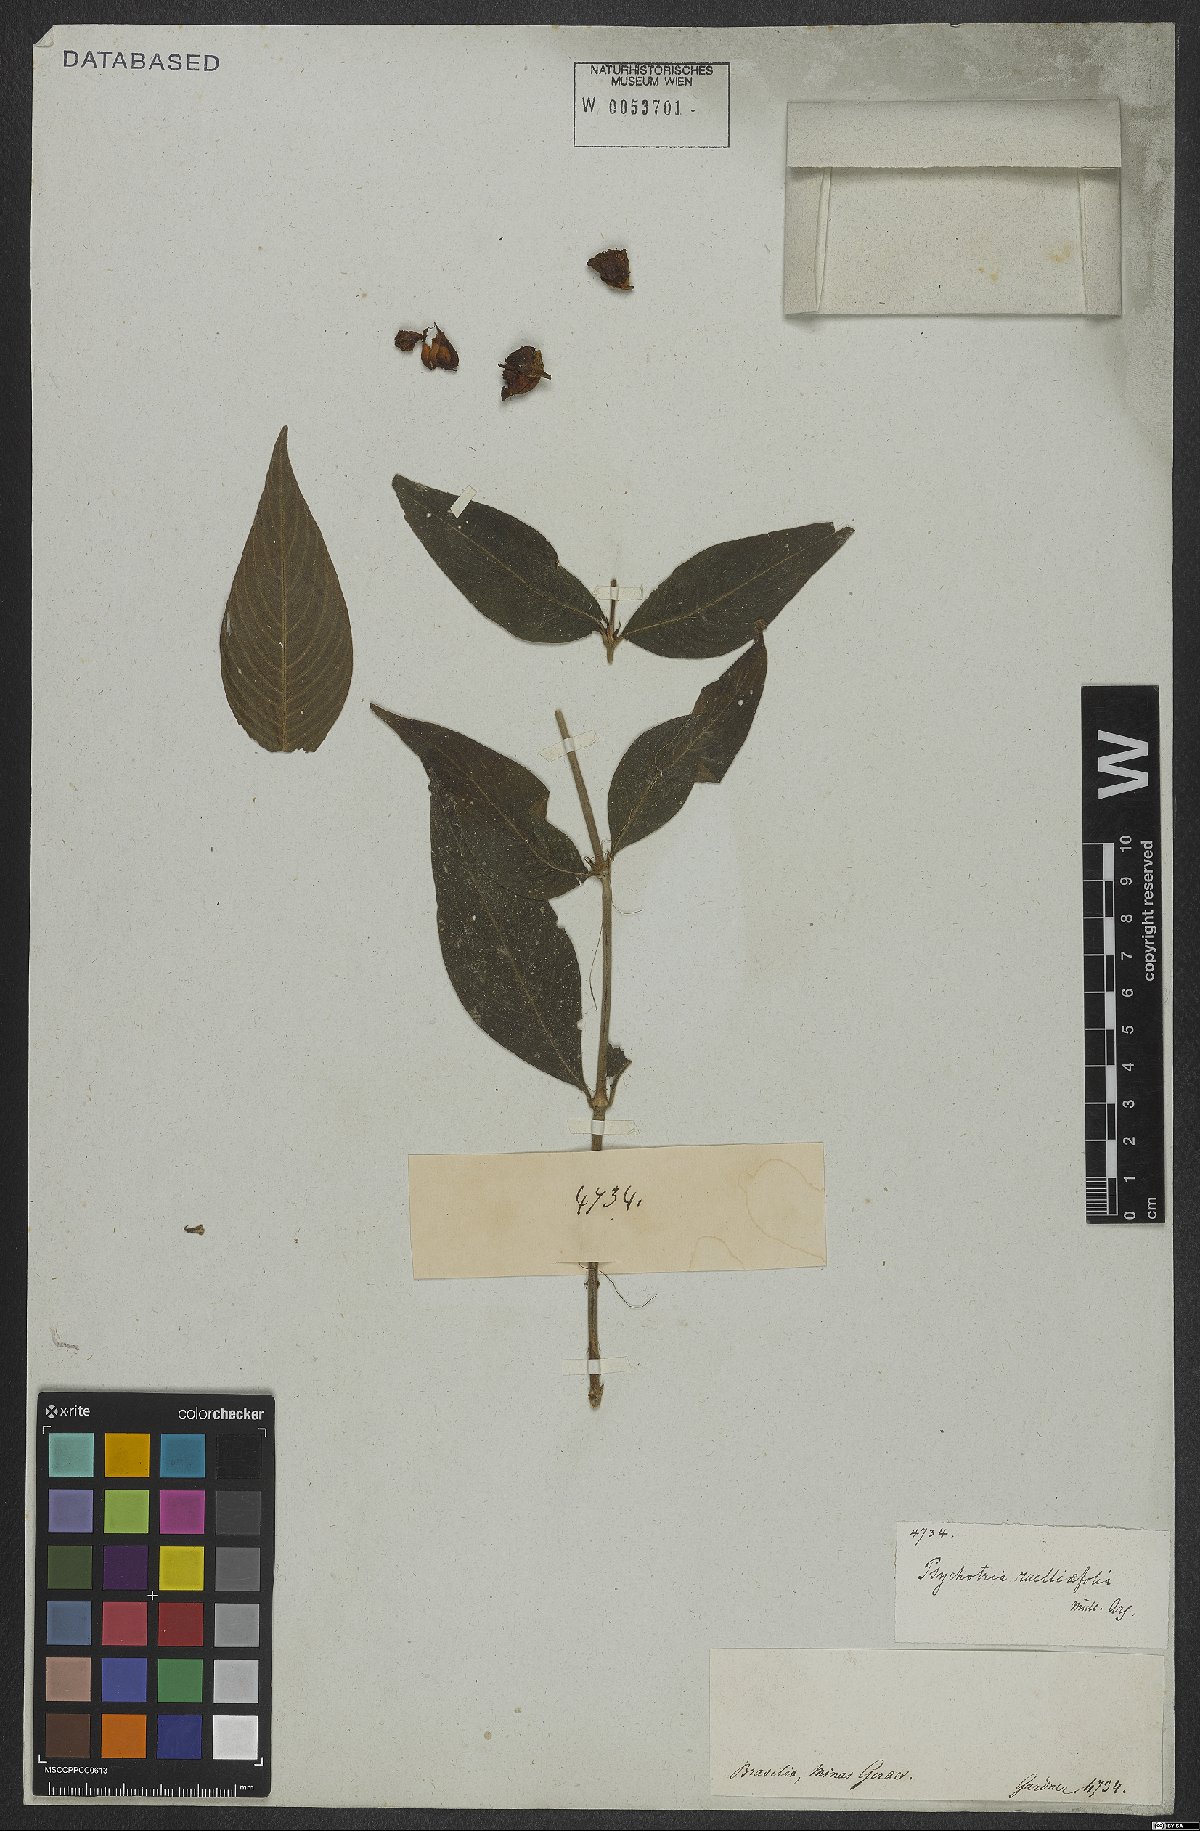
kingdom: Plantae
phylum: Tracheophyta
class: Magnoliopsida
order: Gentianales
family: Rubiaceae
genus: Palicourea
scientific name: Palicourea ruelliifolia
